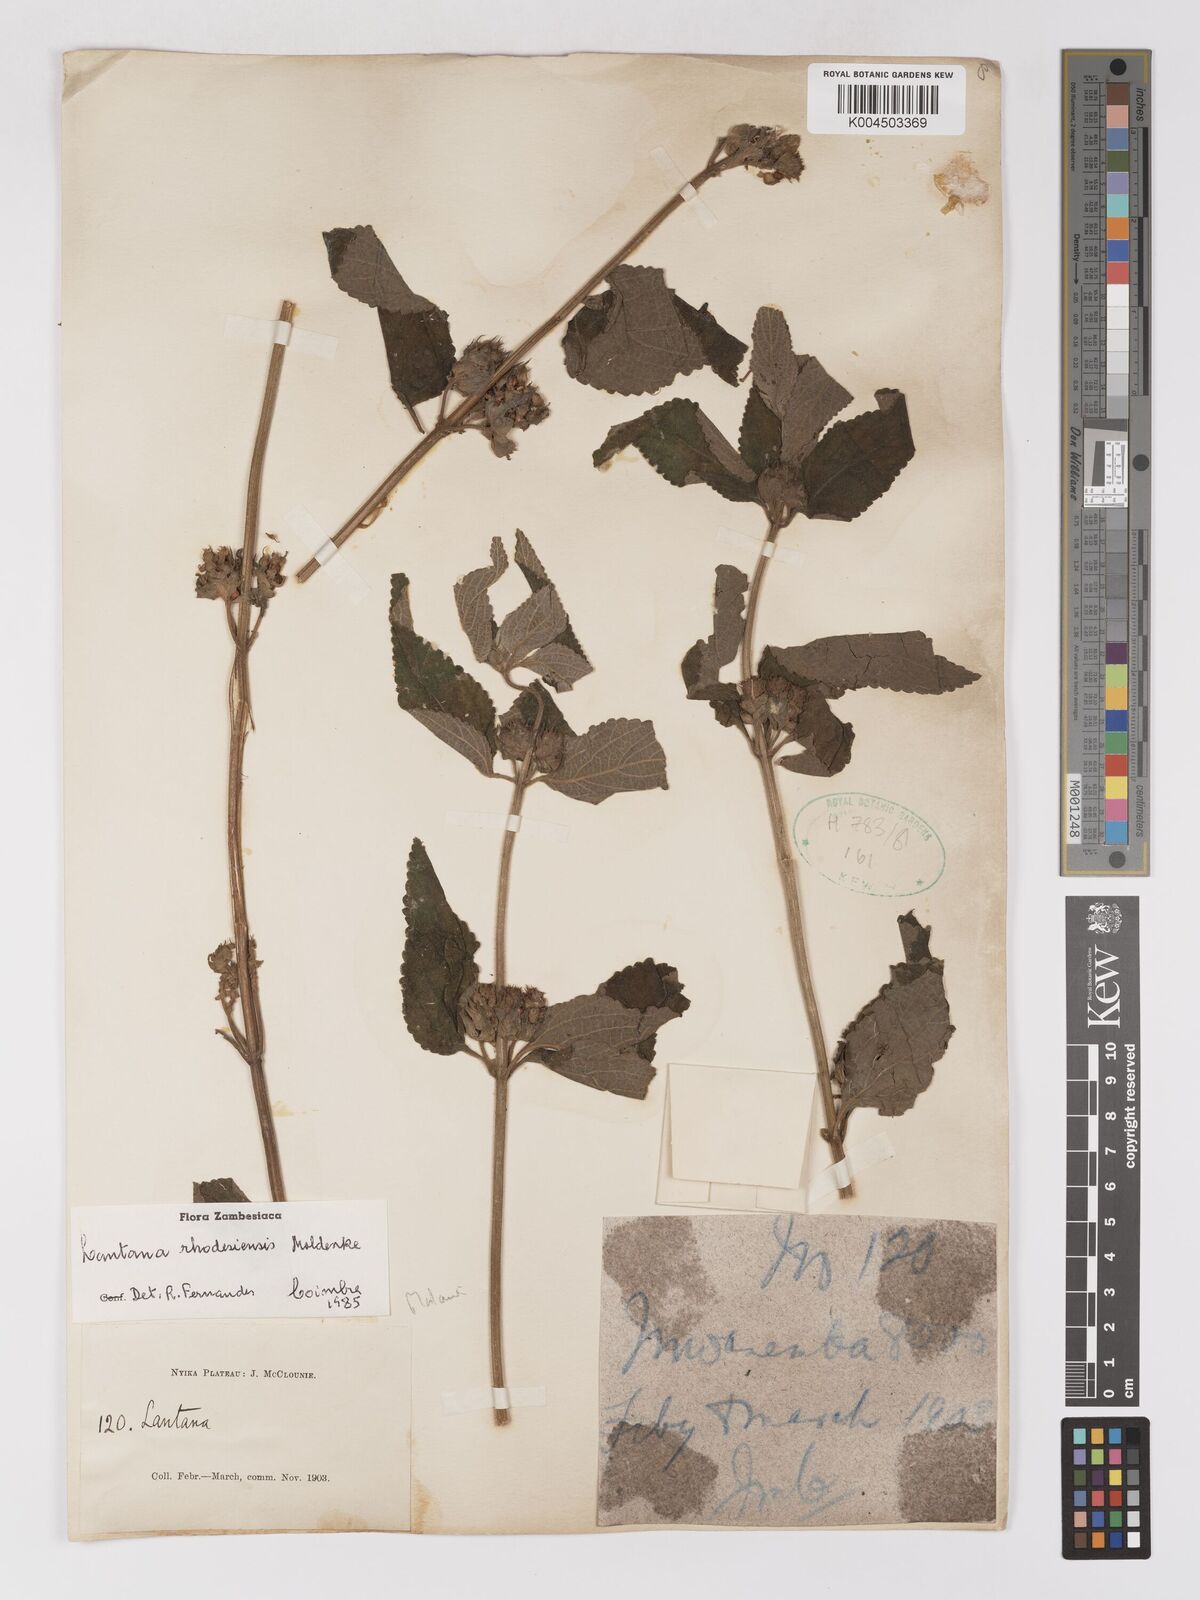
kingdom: Plantae
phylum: Tracheophyta
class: Magnoliopsida
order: Lamiales
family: Verbenaceae
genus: Lantana
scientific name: Lantana ukambensis
